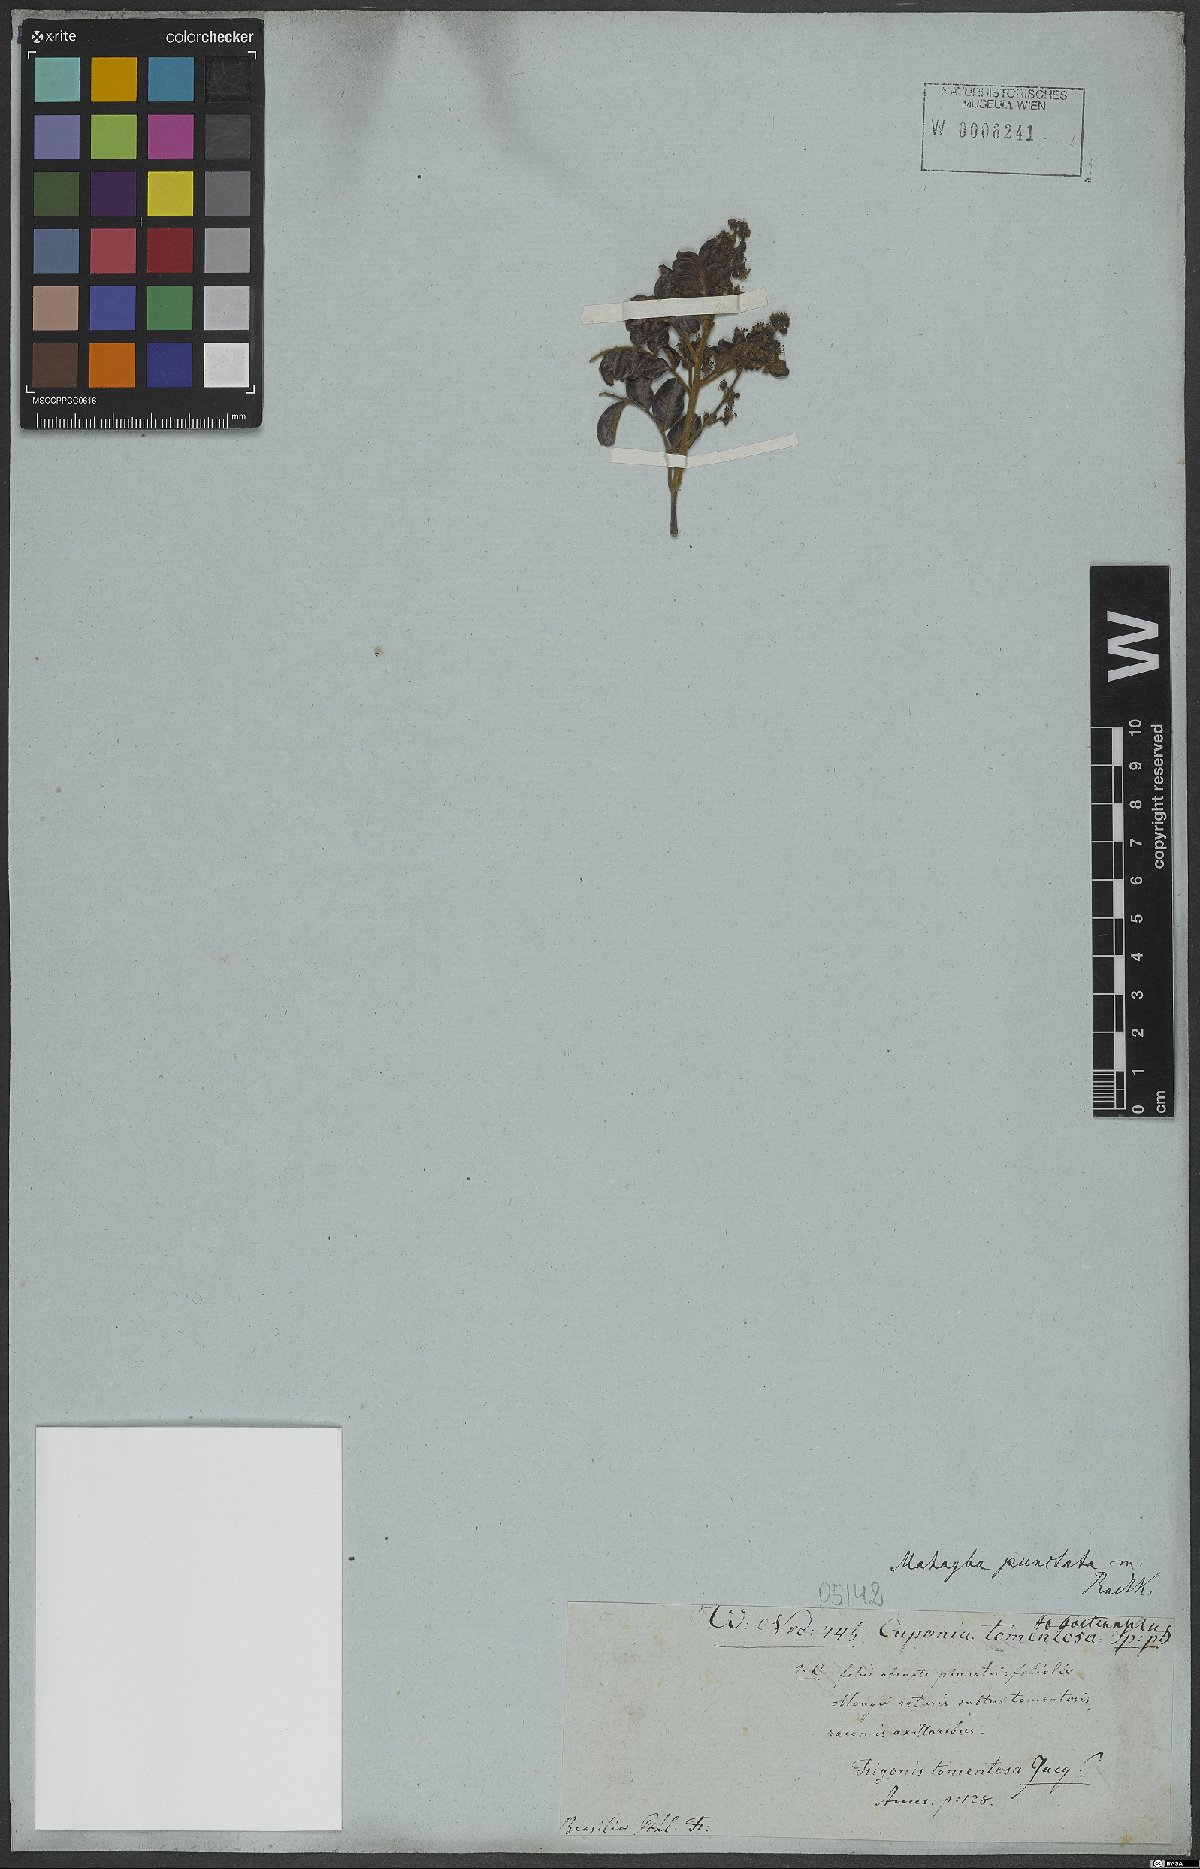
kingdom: Plantae
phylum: Tracheophyta
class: Magnoliopsida
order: Sapindales
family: Sapindaceae
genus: Matayba
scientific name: Matayba punctata
